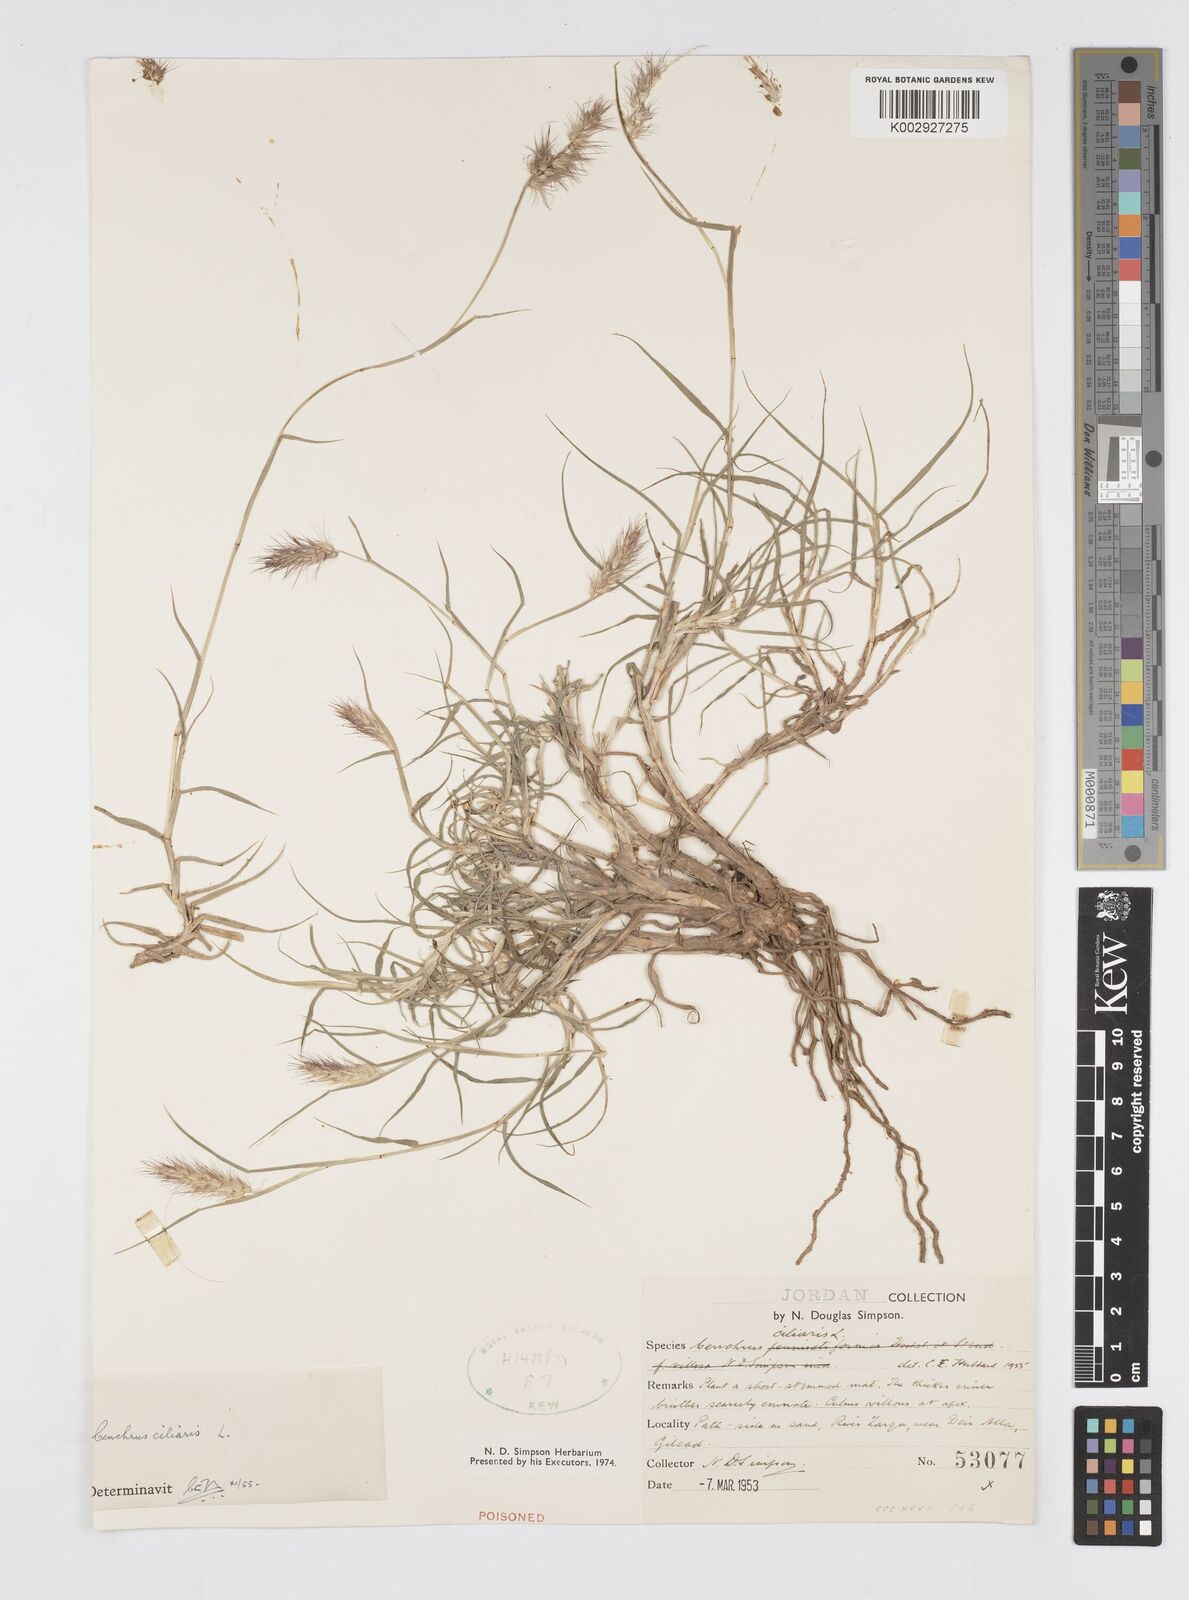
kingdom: Plantae
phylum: Tracheophyta
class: Liliopsida
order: Poales
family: Poaceae
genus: Cenchrus
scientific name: Cenchrus ciliaris
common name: Buffelgrass
